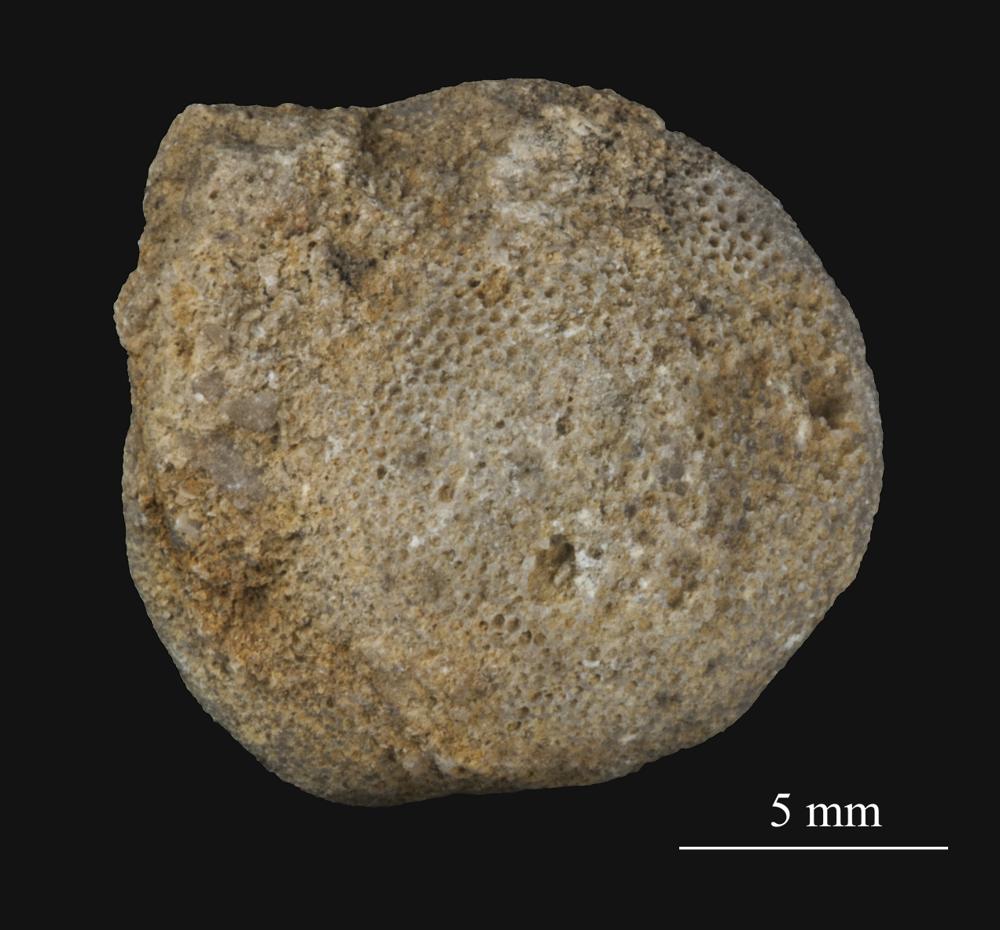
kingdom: Animalia
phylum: Bryozoa
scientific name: Bryozoa
